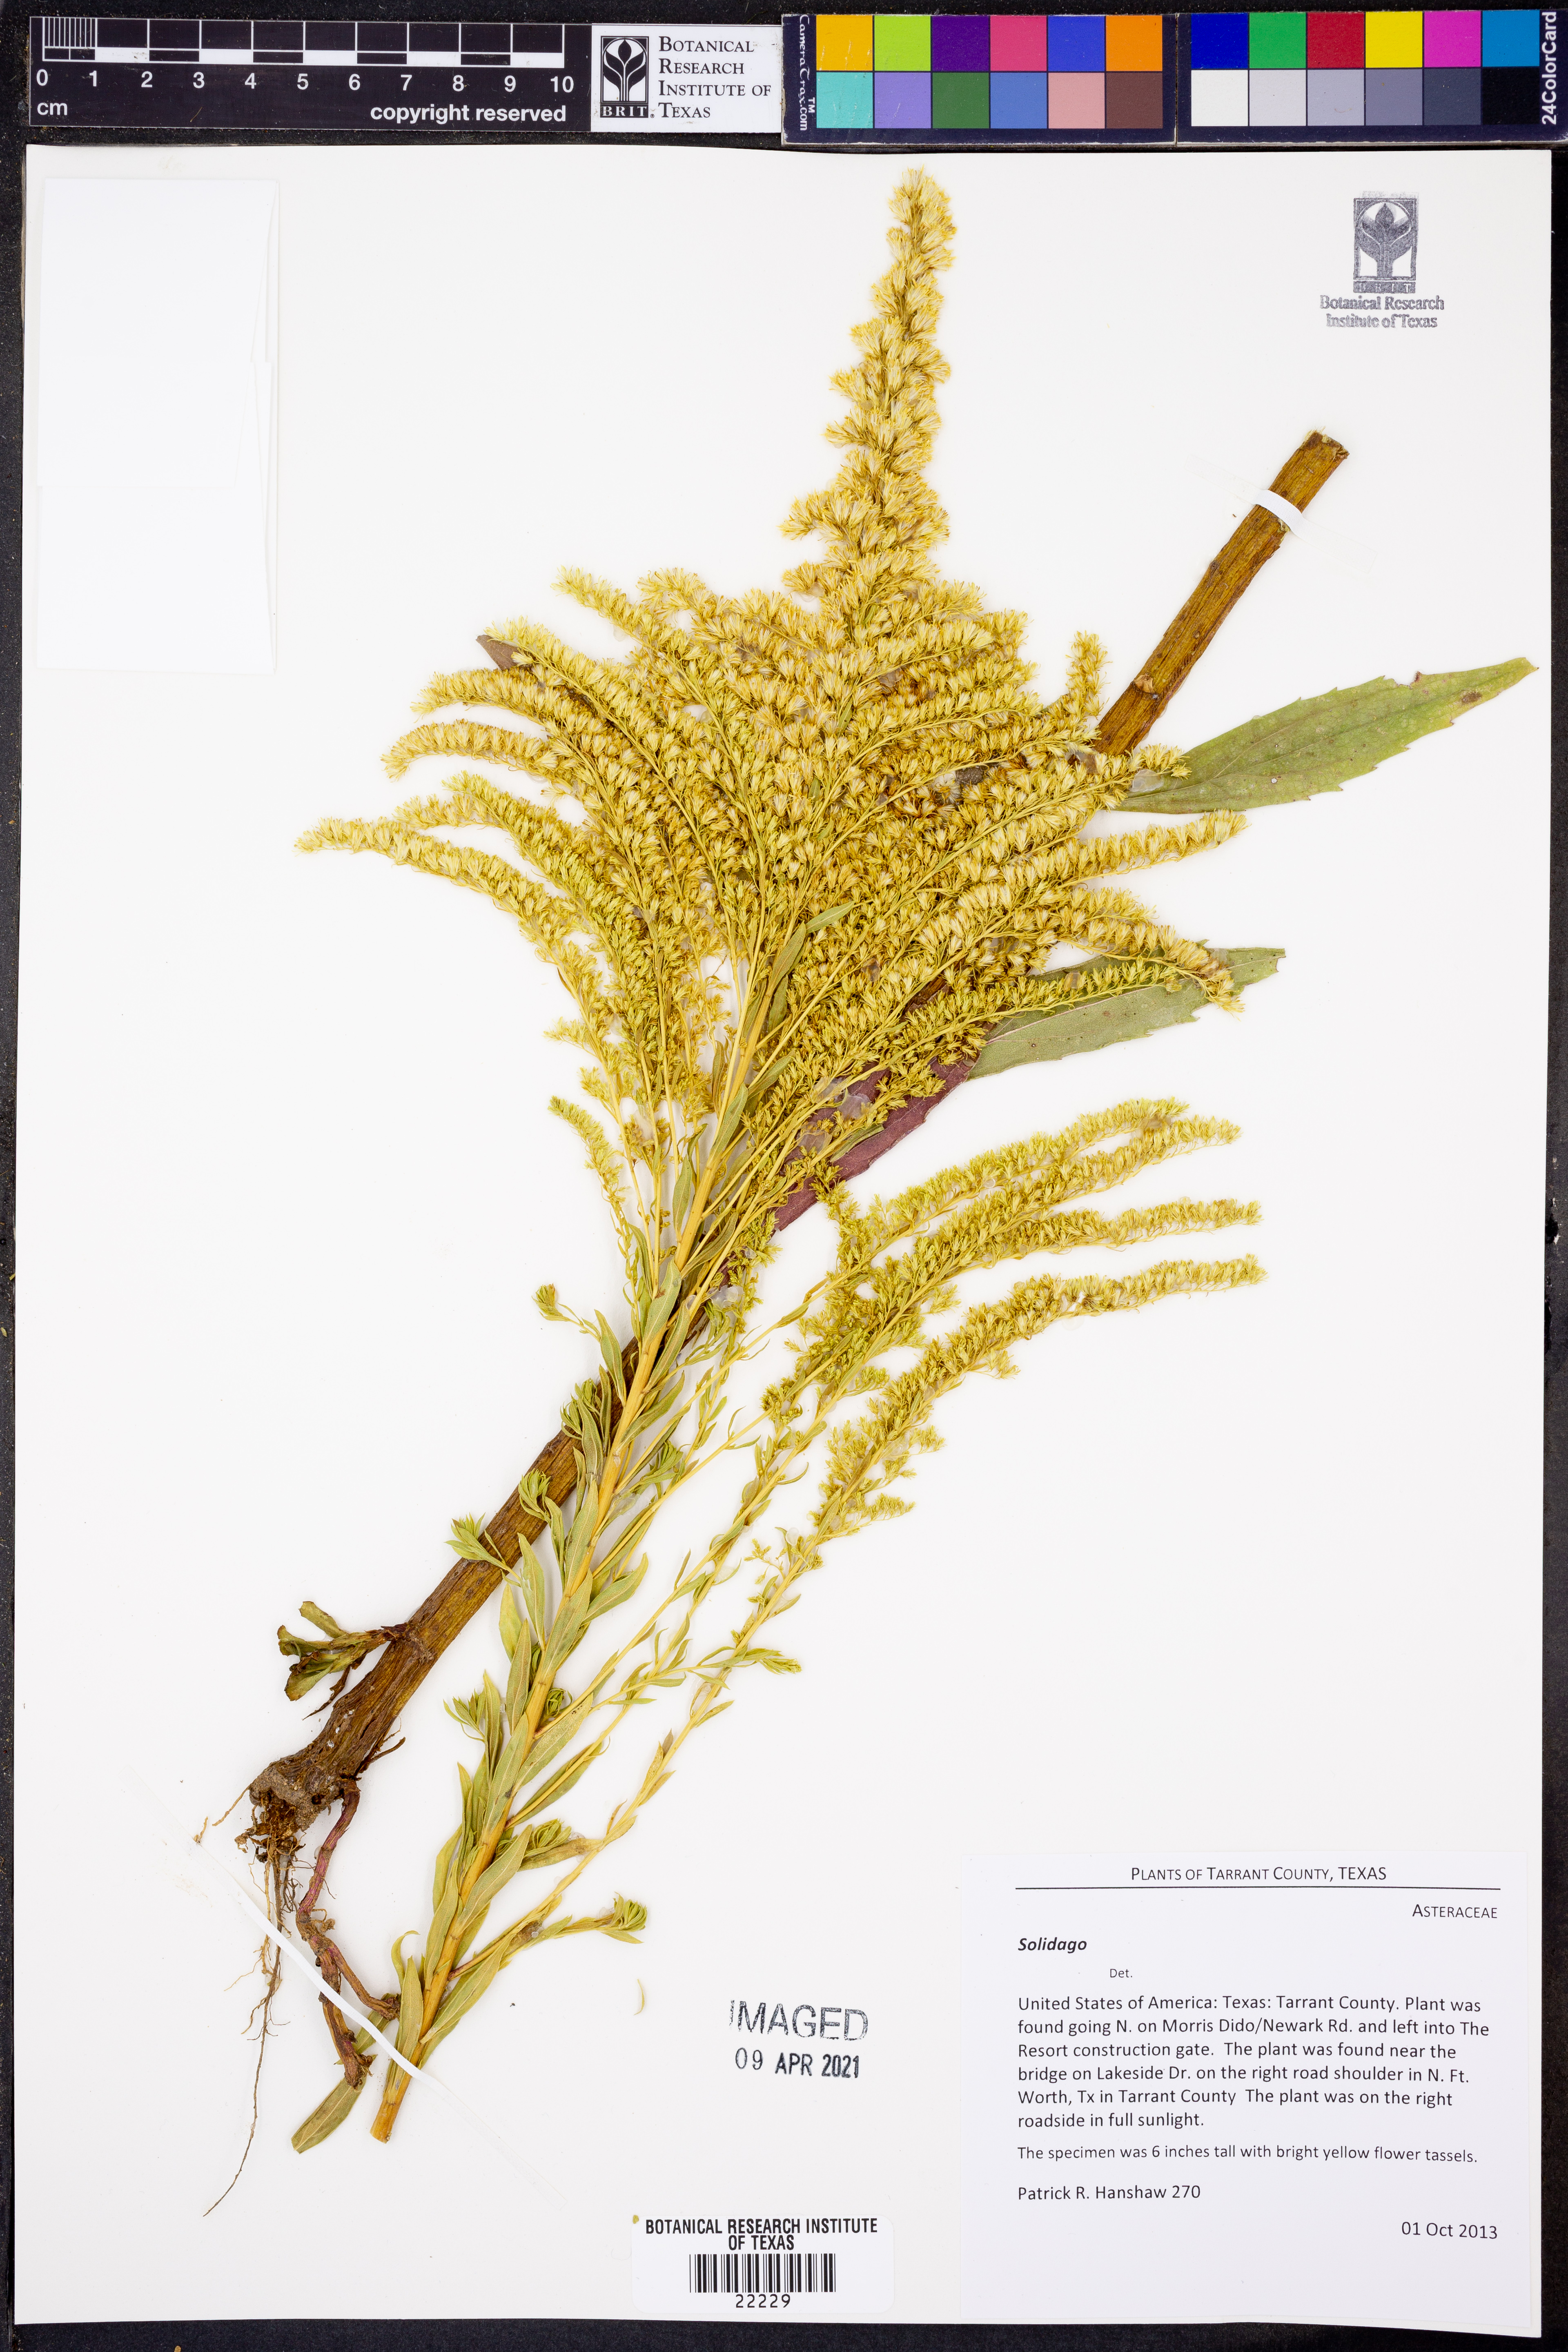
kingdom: Plantae
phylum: Tracheophyta
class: Magnoliopsida
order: Asterales
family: Asteraceae
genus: Solidago
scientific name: Solidago
